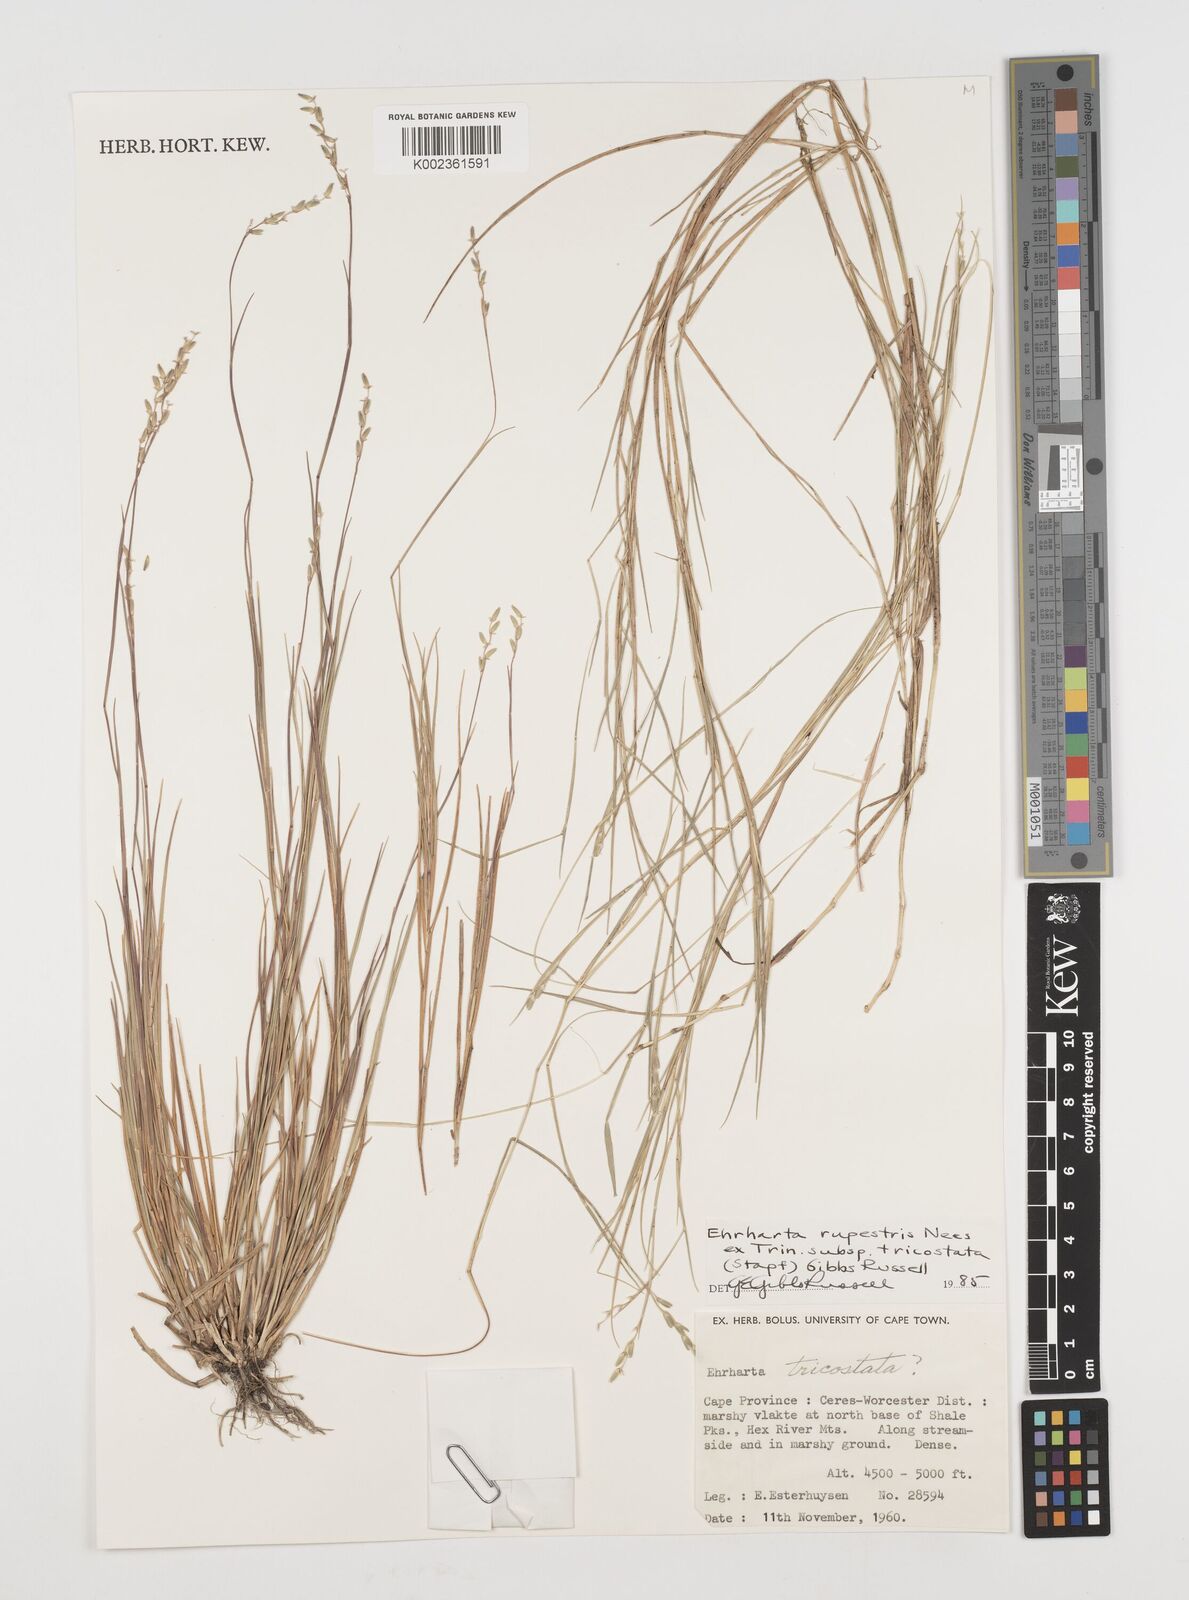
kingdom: Plantae
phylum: Tracheophyta
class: Liliopsida
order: Poales
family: Poaceae
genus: Ehrharta
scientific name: Ehrharta rupestris
